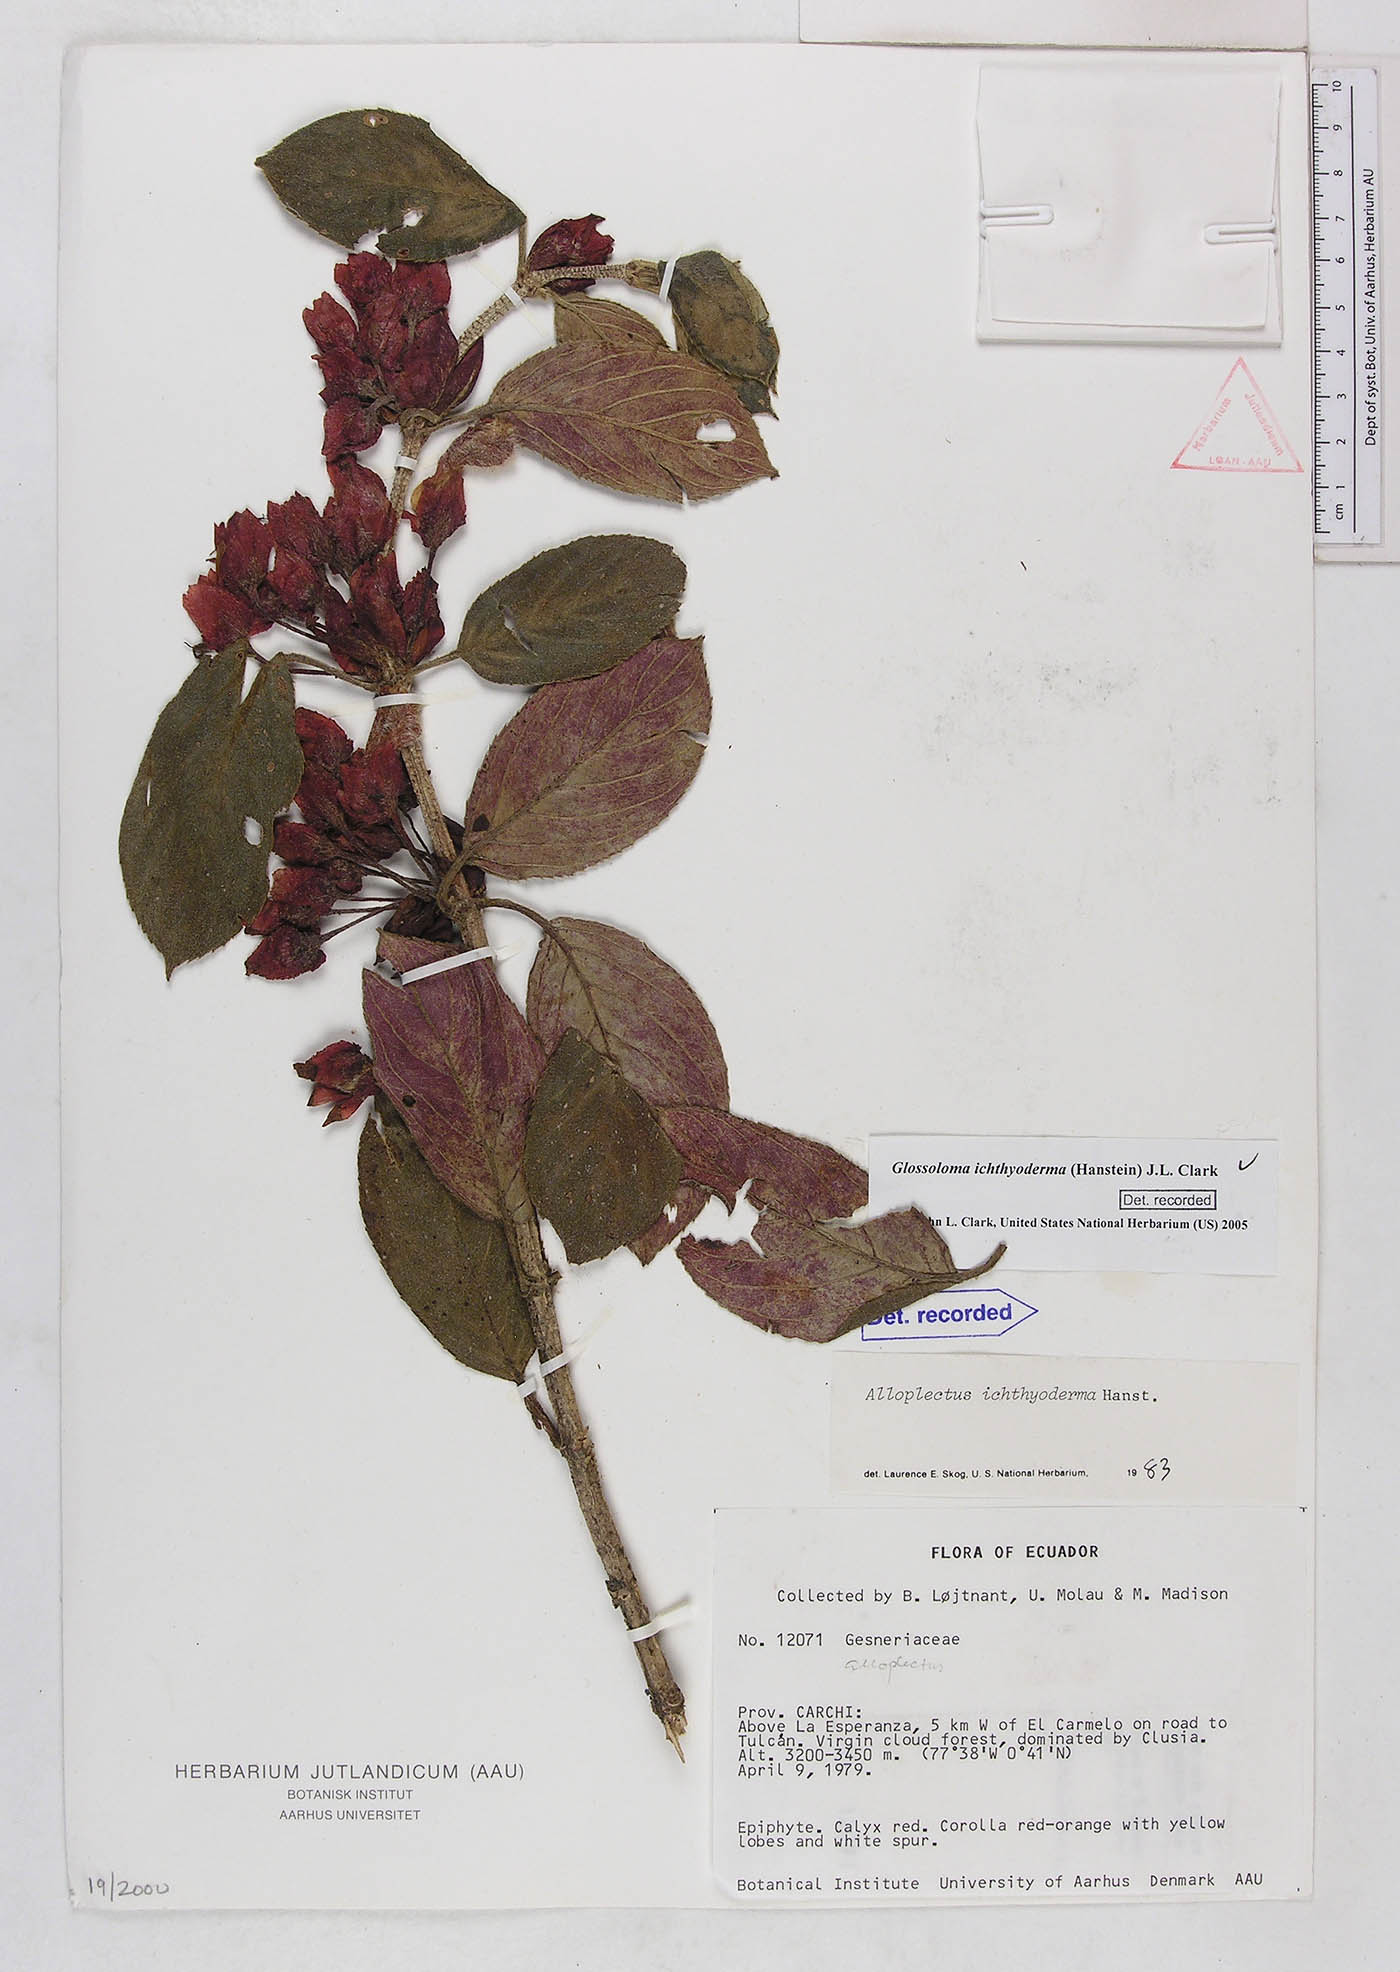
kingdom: Plantae
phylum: Tracheophyta
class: Magnoliopsida
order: Lamiales
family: Gesneriaceae
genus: Glossoloma
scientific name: Glossoloma ichthyoderma
